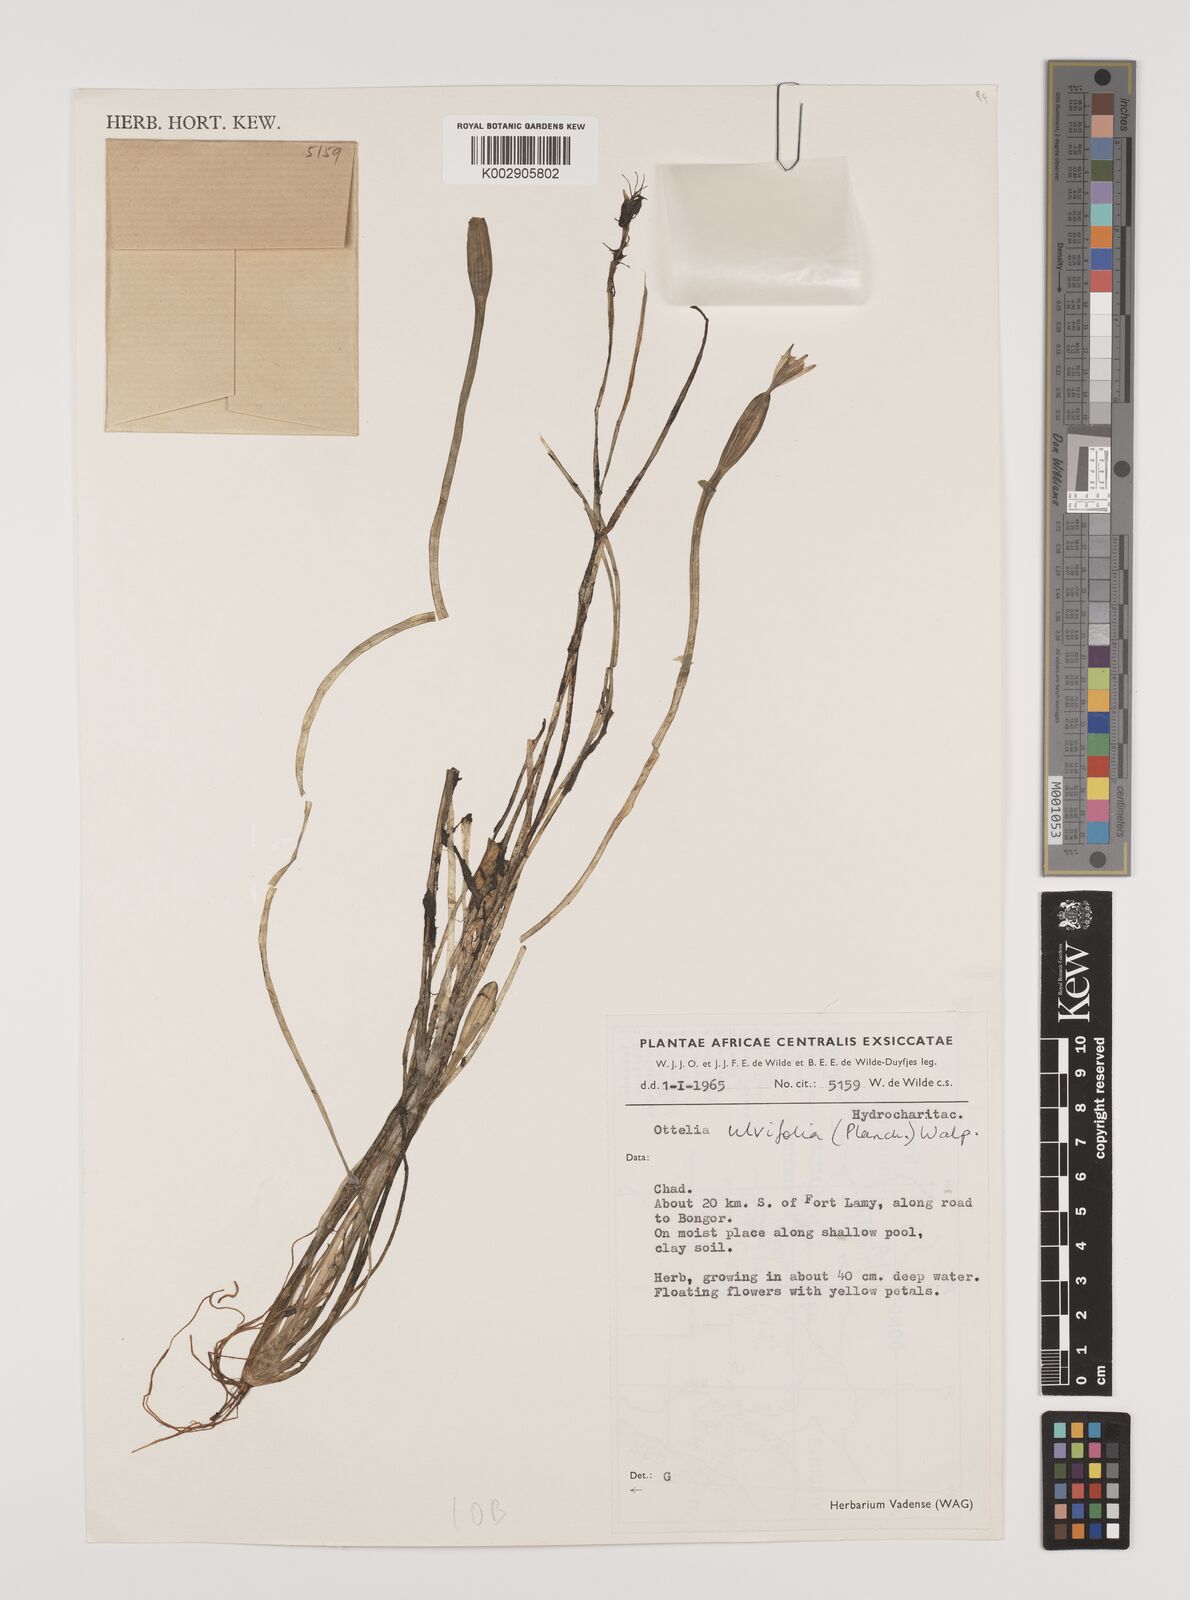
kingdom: Plantae
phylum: Tracheophyta
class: Liliopsida
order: Alismatales
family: Hydrocharitaceae
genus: Ottelia
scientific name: Ottelia ulvifolia
